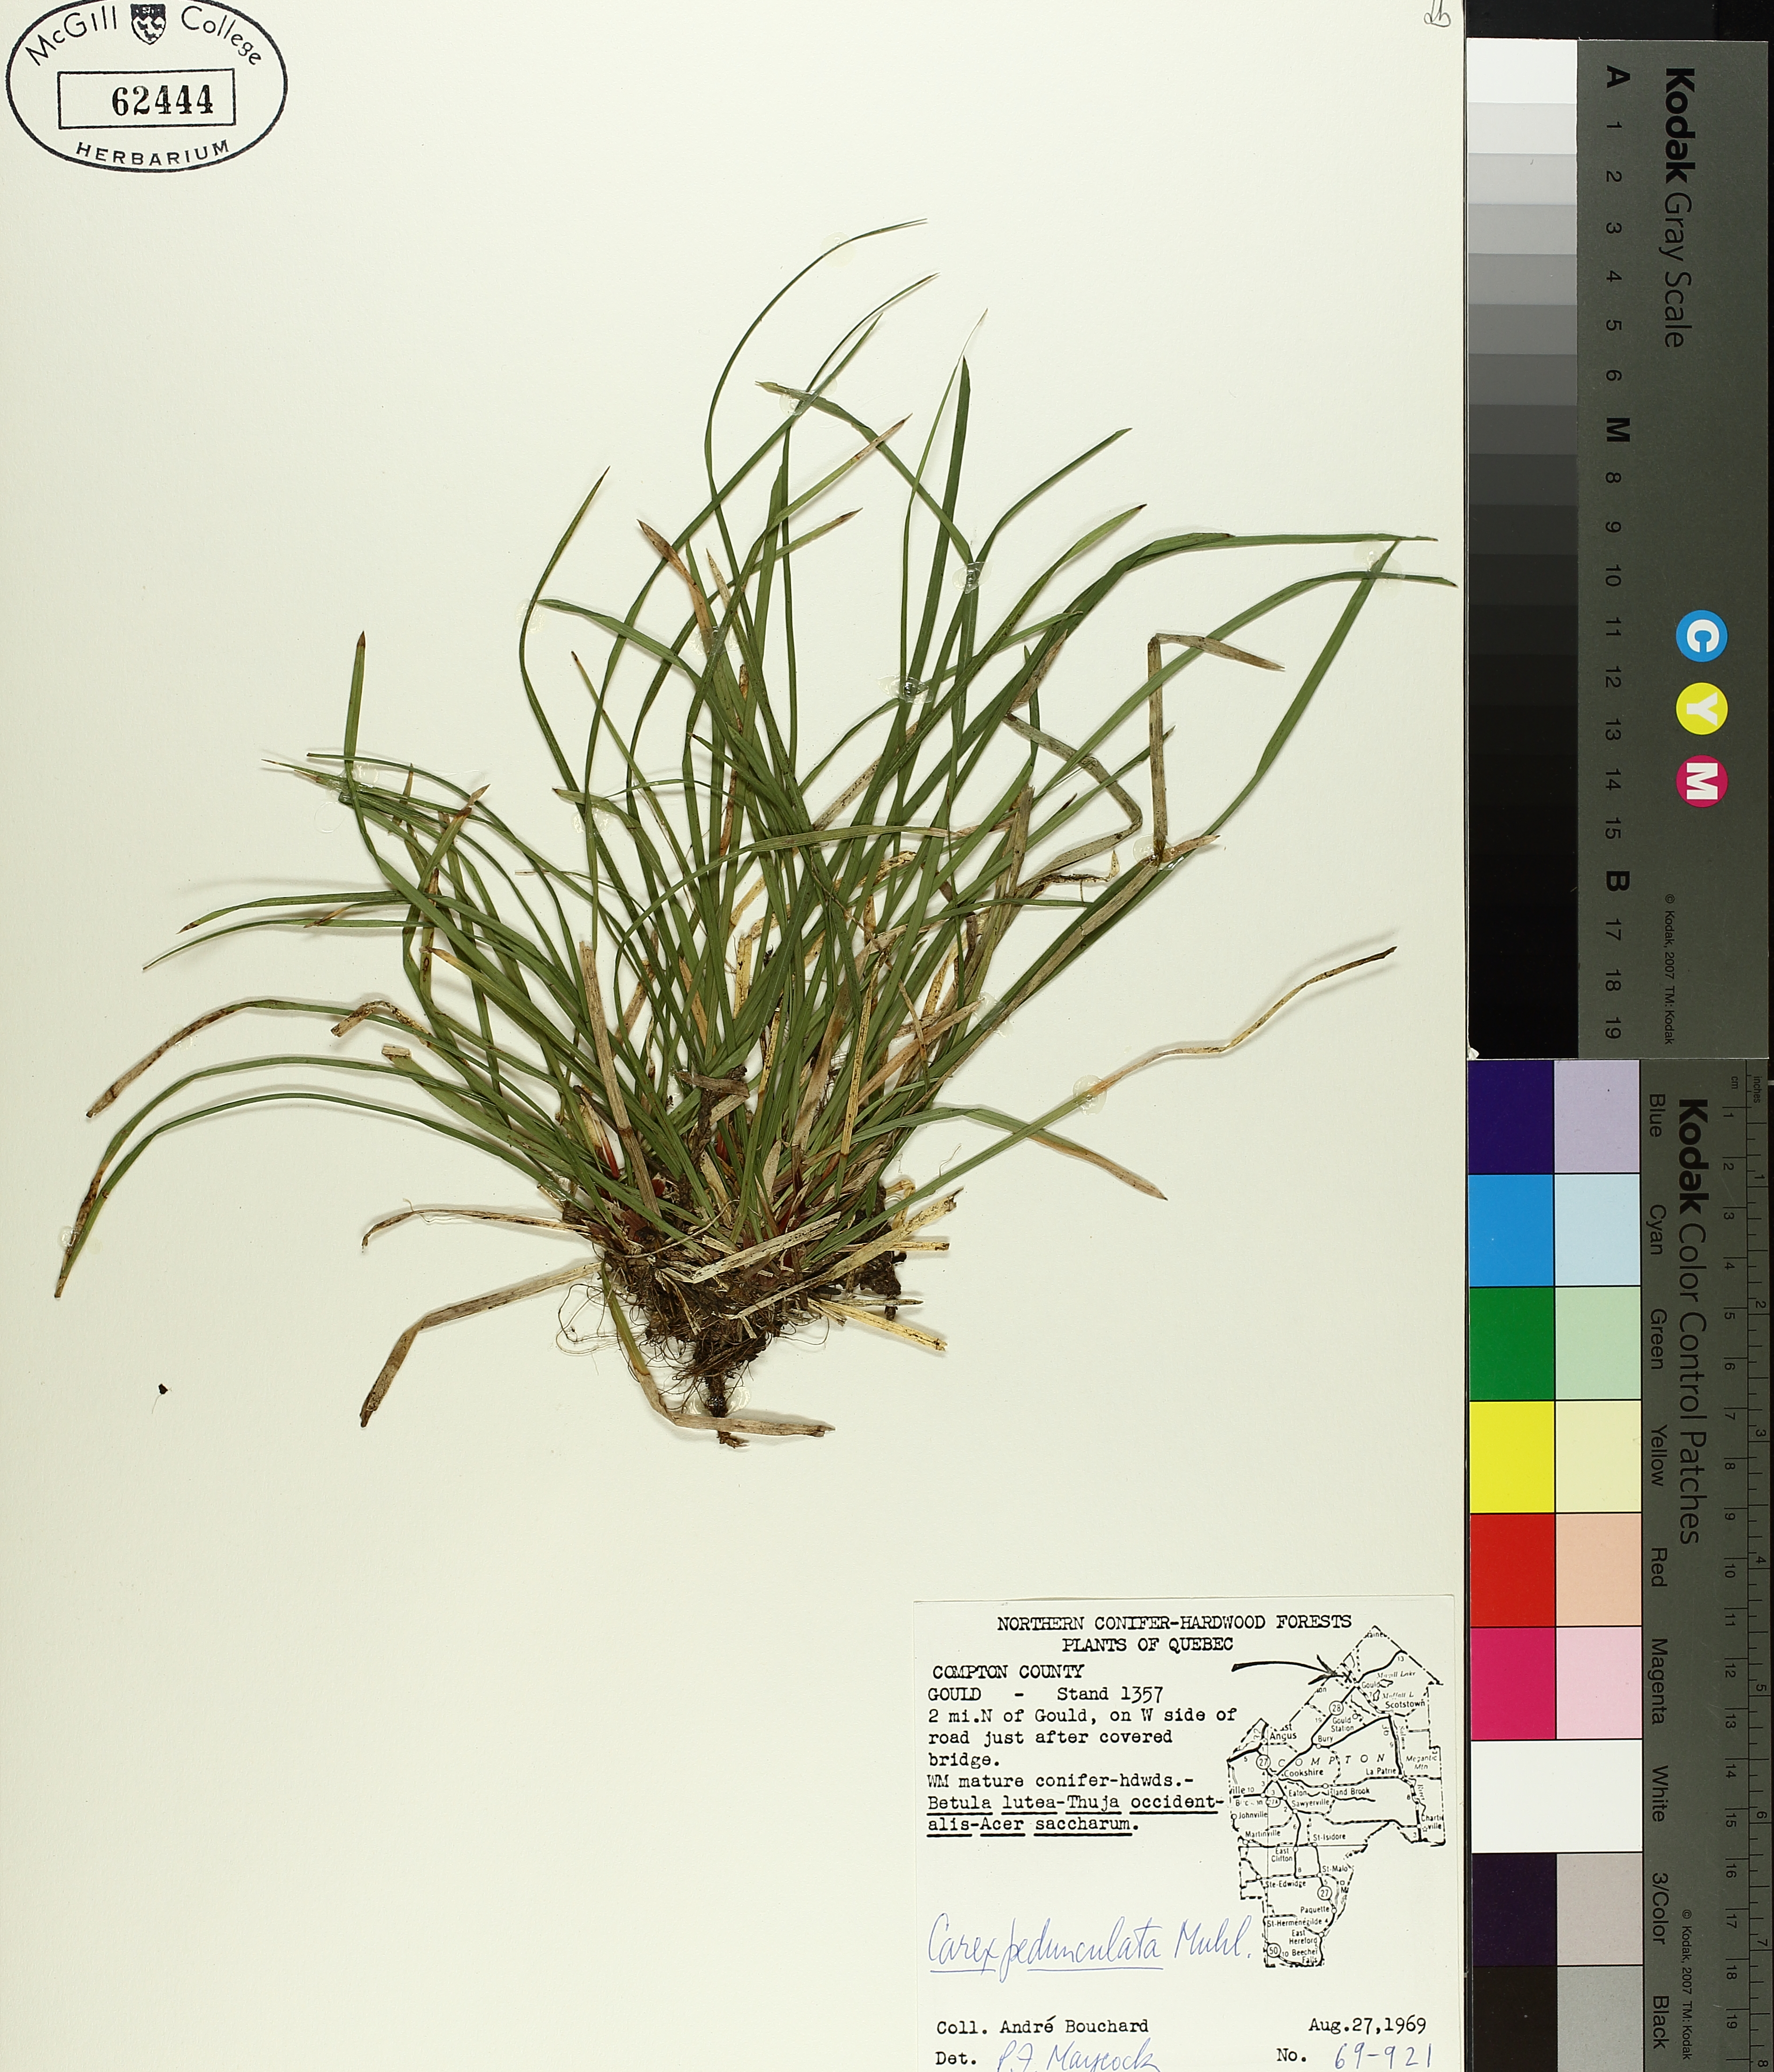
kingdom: Plantae
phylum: Tracheophyta
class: Liliopsida
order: Poales
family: Cyperaceae
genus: Carex
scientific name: Carex pedunculata
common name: Pedunculate sedge
